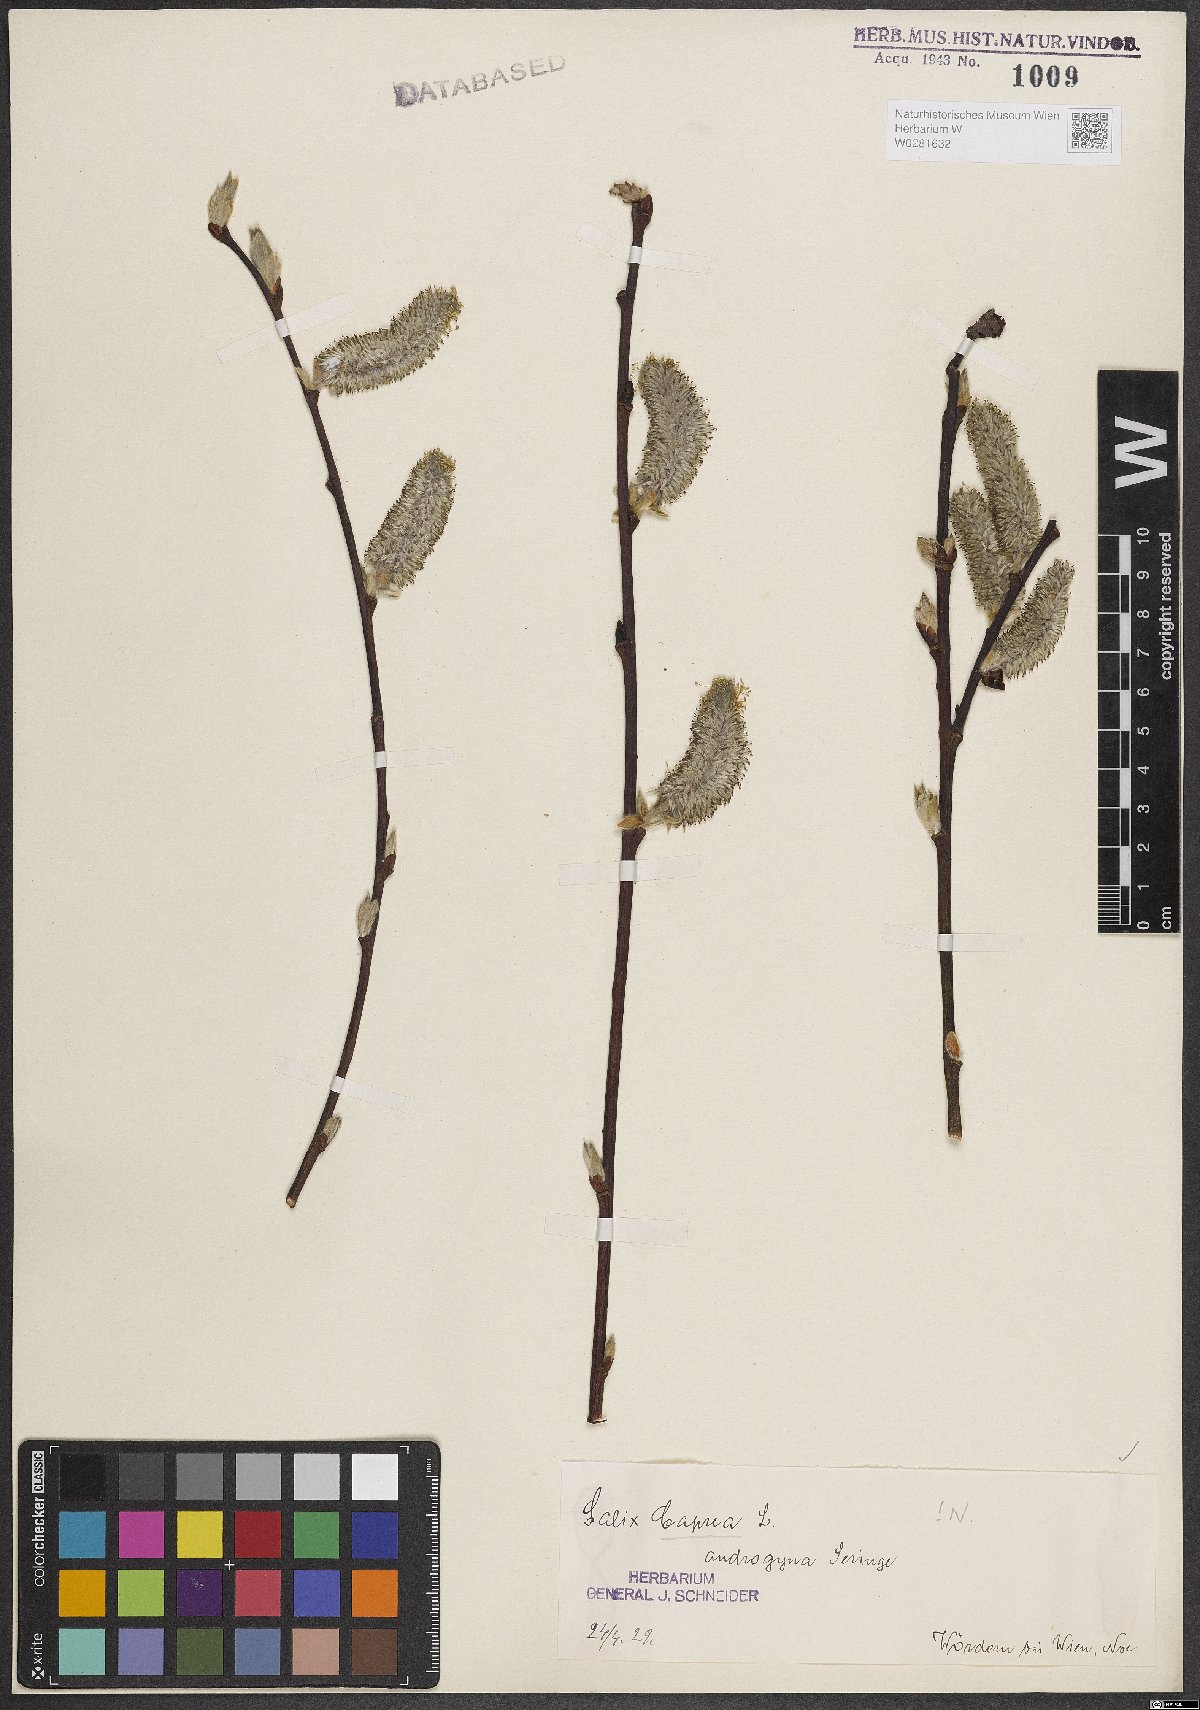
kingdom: Plantae
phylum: Tracheophyta
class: Magnoliopsida
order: Malpighiales
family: Salicaceae
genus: Salix
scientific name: Salix caprea
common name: Goat willow
